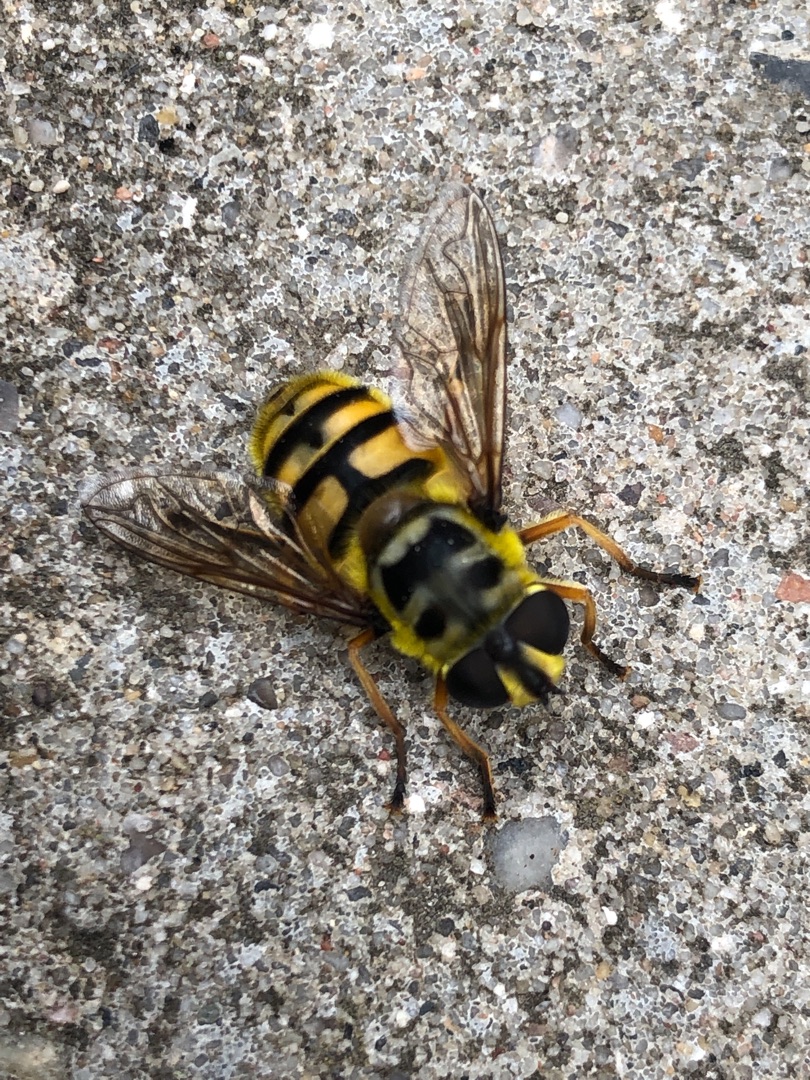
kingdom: Animalia
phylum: Arthropoda
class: Insecta
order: Diptera
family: Syrphidae
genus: Myathropa
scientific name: Myathropa florea
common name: Dødningehoved-svirreflue
